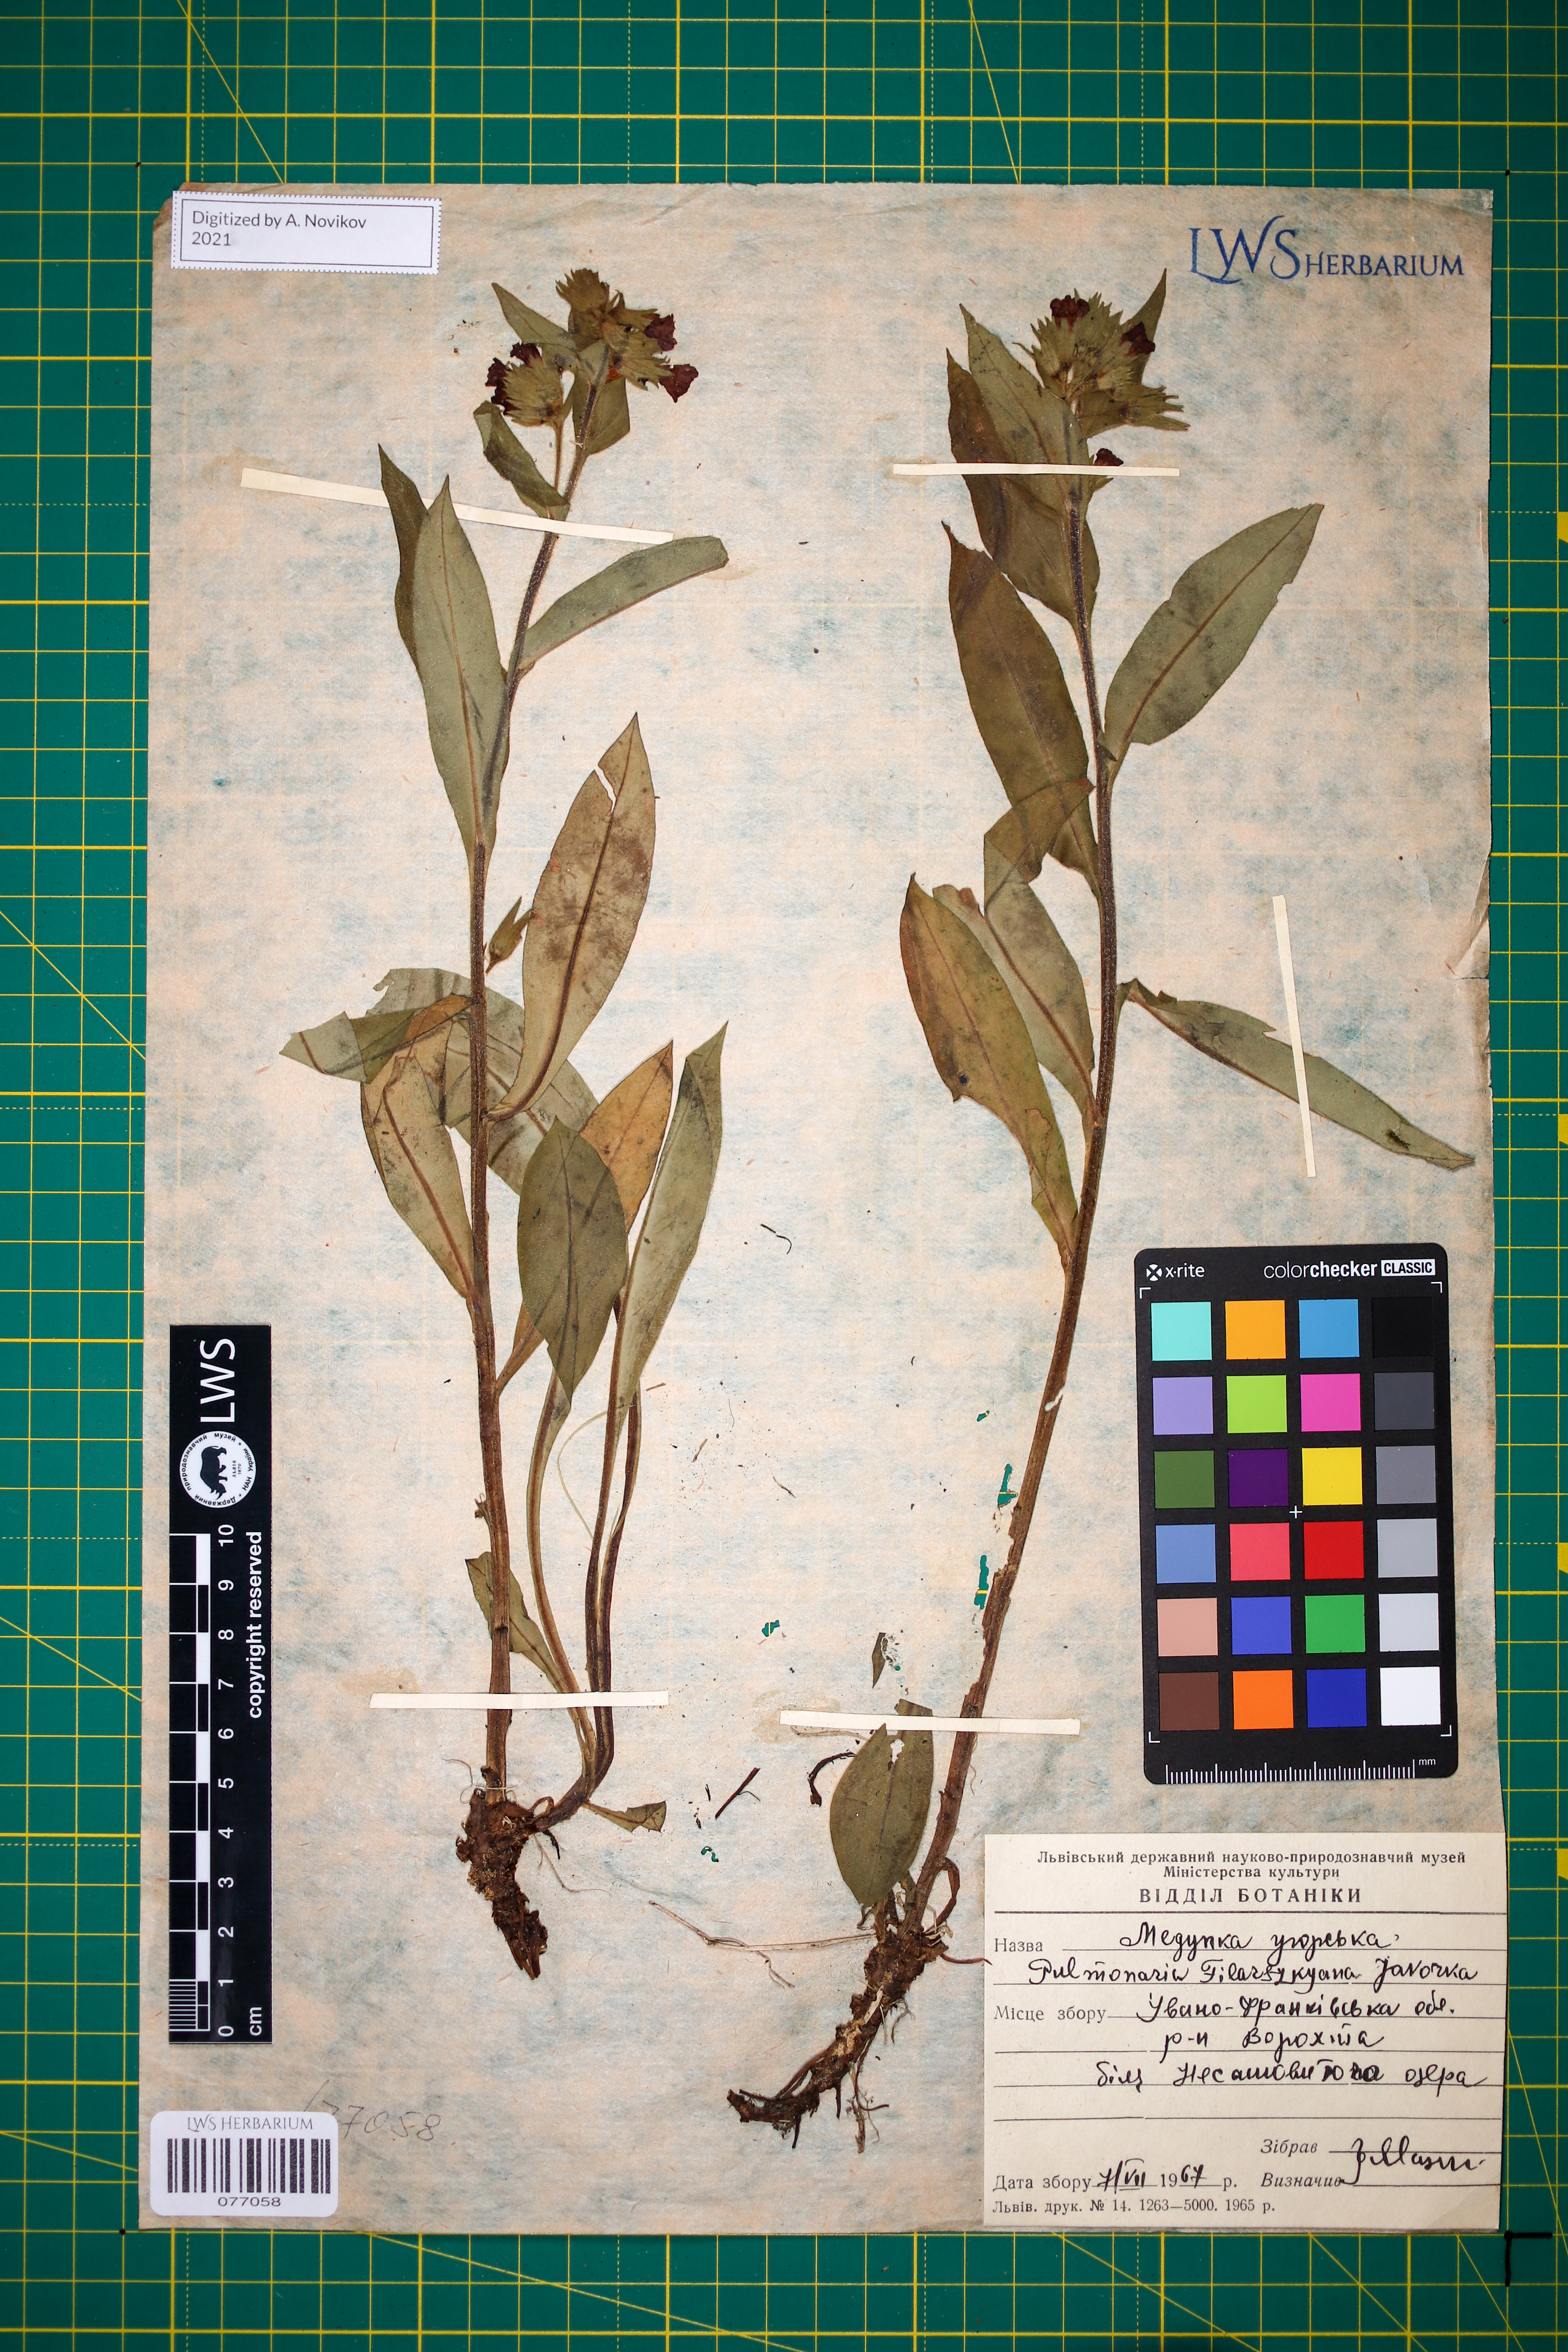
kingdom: Plantae
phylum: Tracheophyta
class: Magnoliopsida
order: Boraginales
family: Boraginaceae
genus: Pulmonaria
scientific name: Pulmonaria filarszkyana
